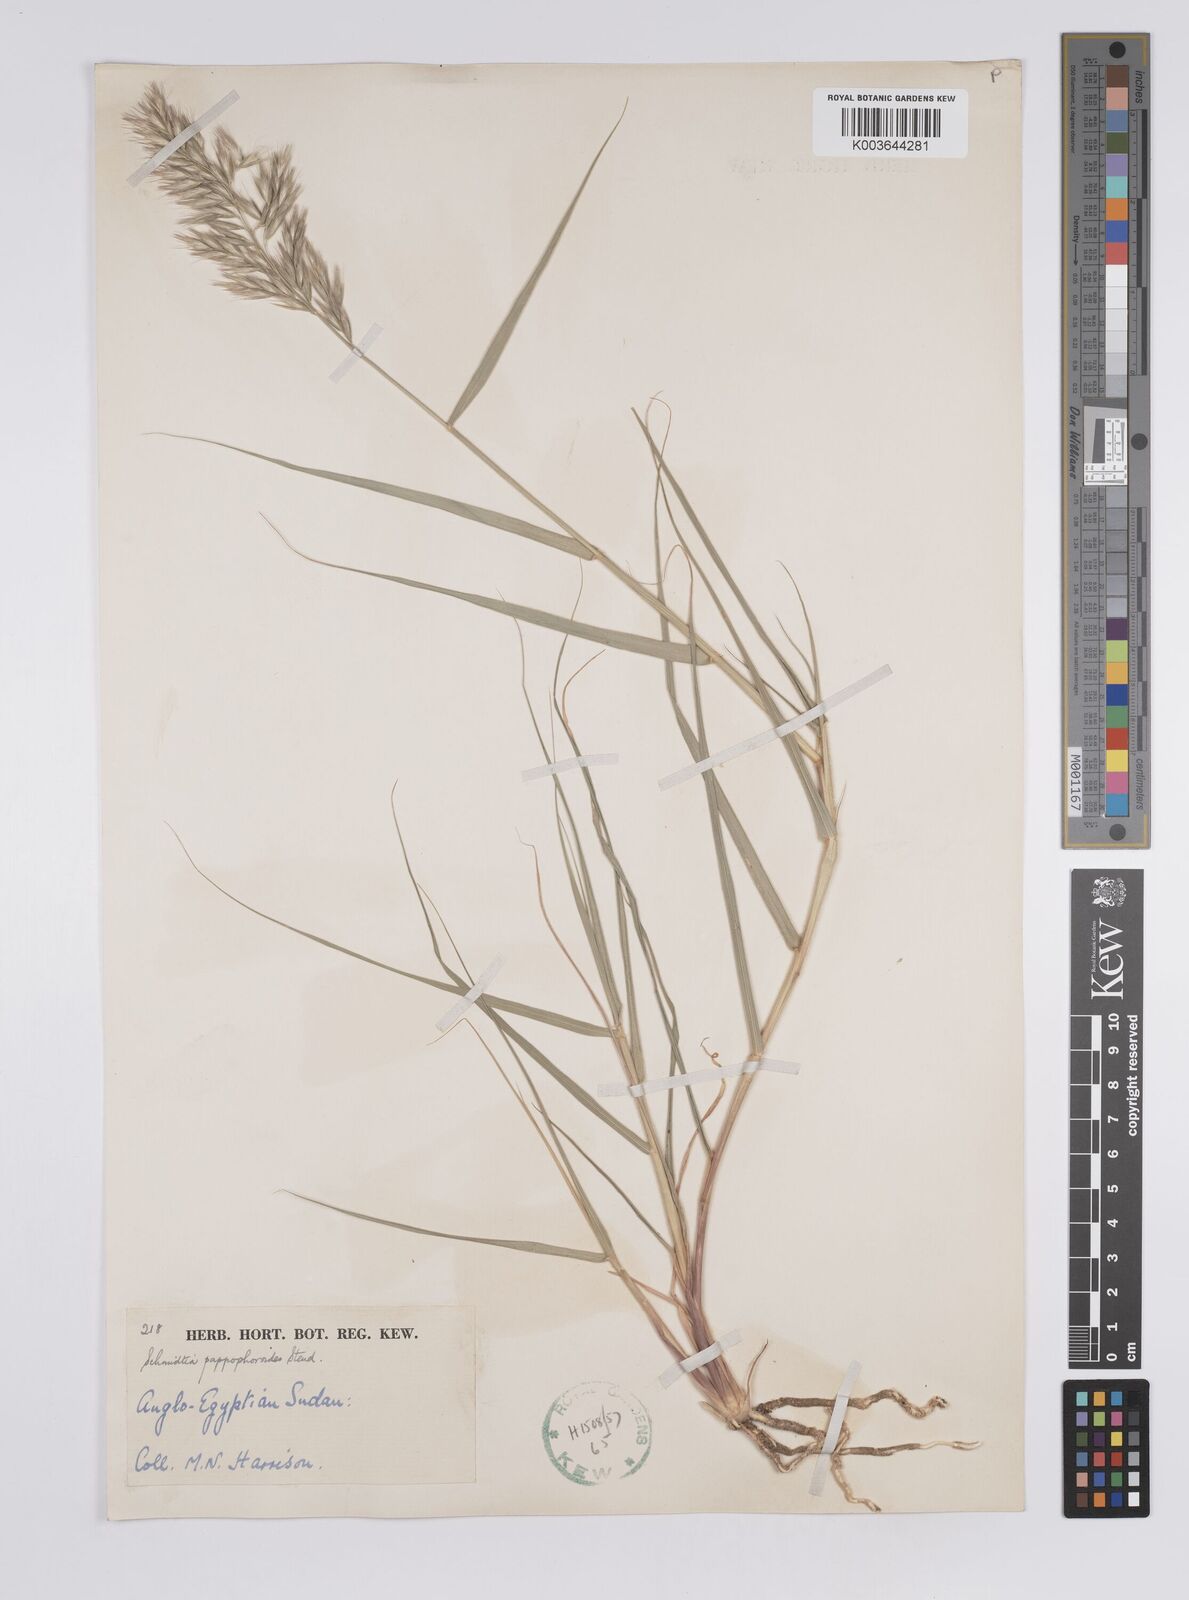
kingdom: Plantae
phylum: Tracheophyta
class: Liliopsida
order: Poales
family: Poaceae
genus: Schmidtia
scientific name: Schmidtia pappophoroides
